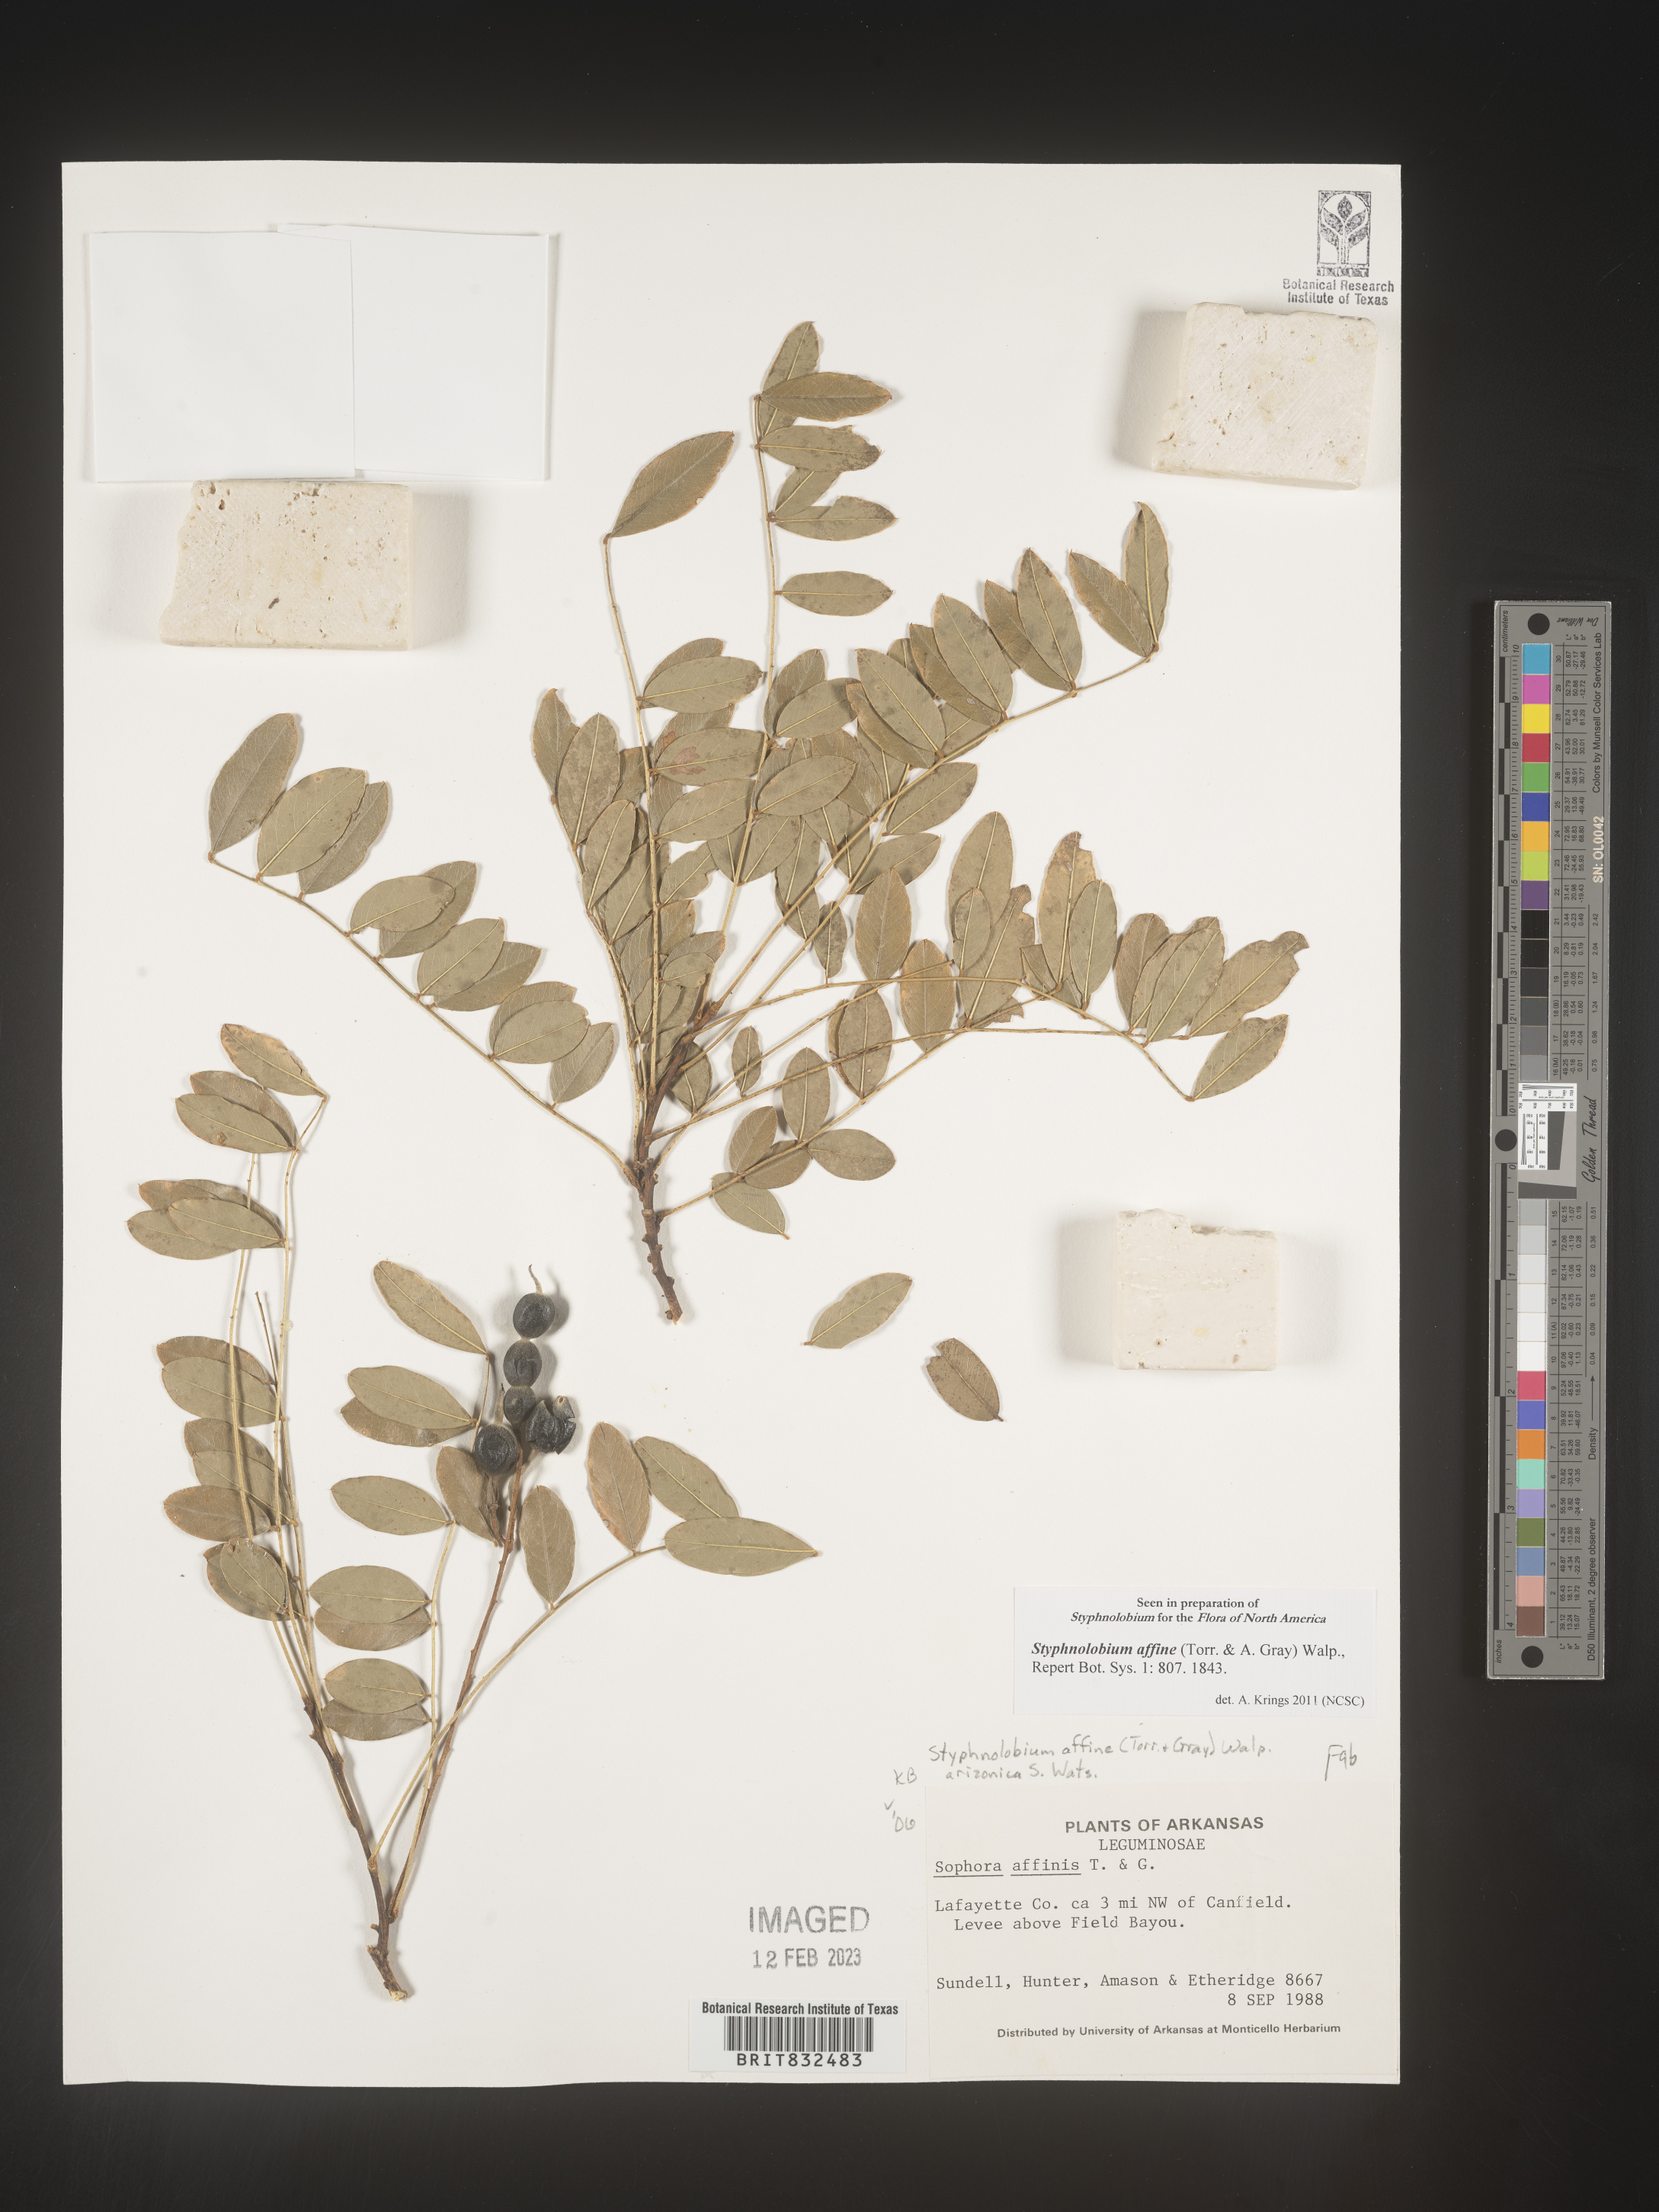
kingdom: Plantae
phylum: Tracheophyta
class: Magnoliopsida
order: Fabales
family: Fabaceae
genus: Styphnolobium
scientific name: Styphnolobium
